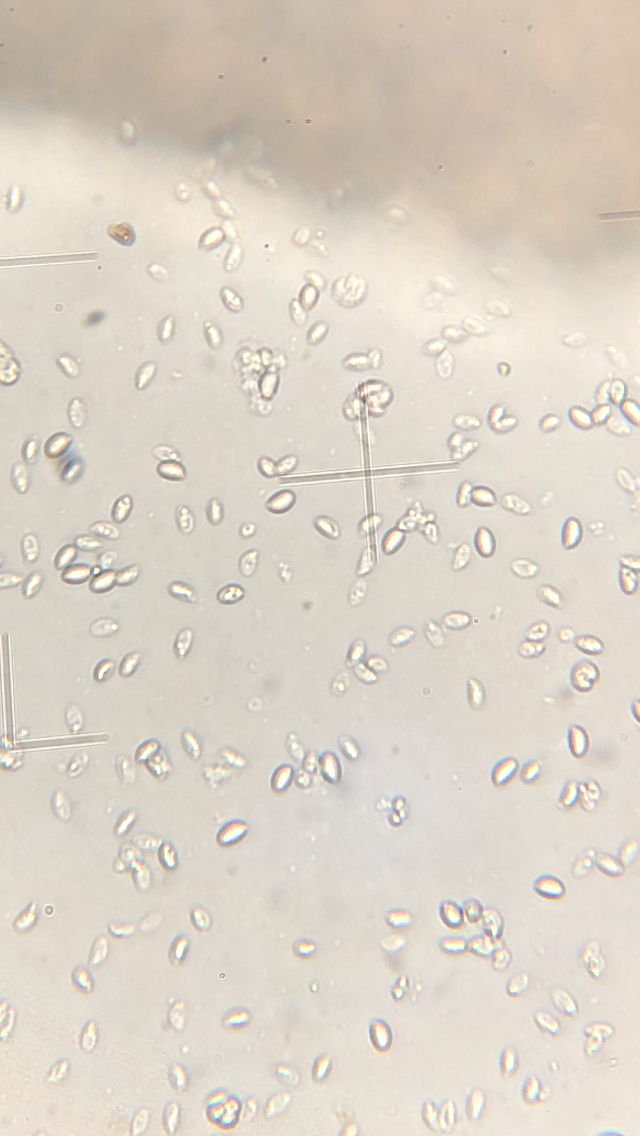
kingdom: Fungi
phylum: Basidiomycota
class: Agaricomycetes
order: Agaricales
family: Omphalotaceae
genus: Gymnopus
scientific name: Gymnopus ocior
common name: mørk fladhat
